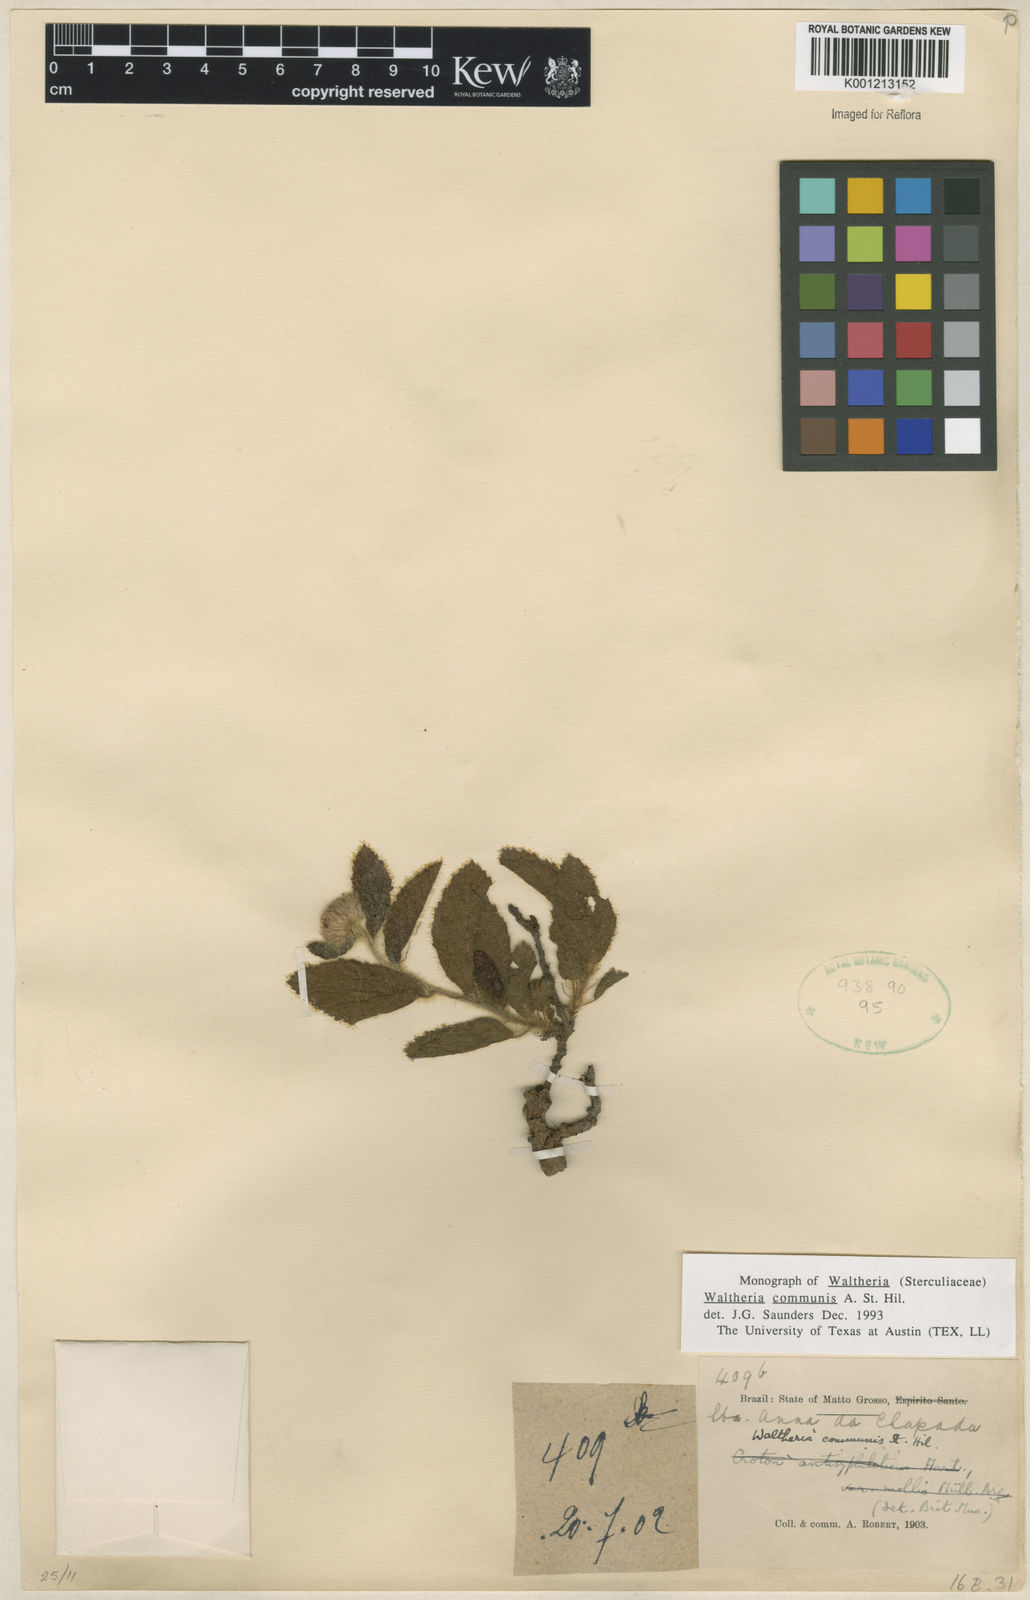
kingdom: Plantae
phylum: Tracheophyta
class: Magnoliopsida
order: Malvales
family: Malvaceae
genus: Waltheria
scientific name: Waltheria communis
